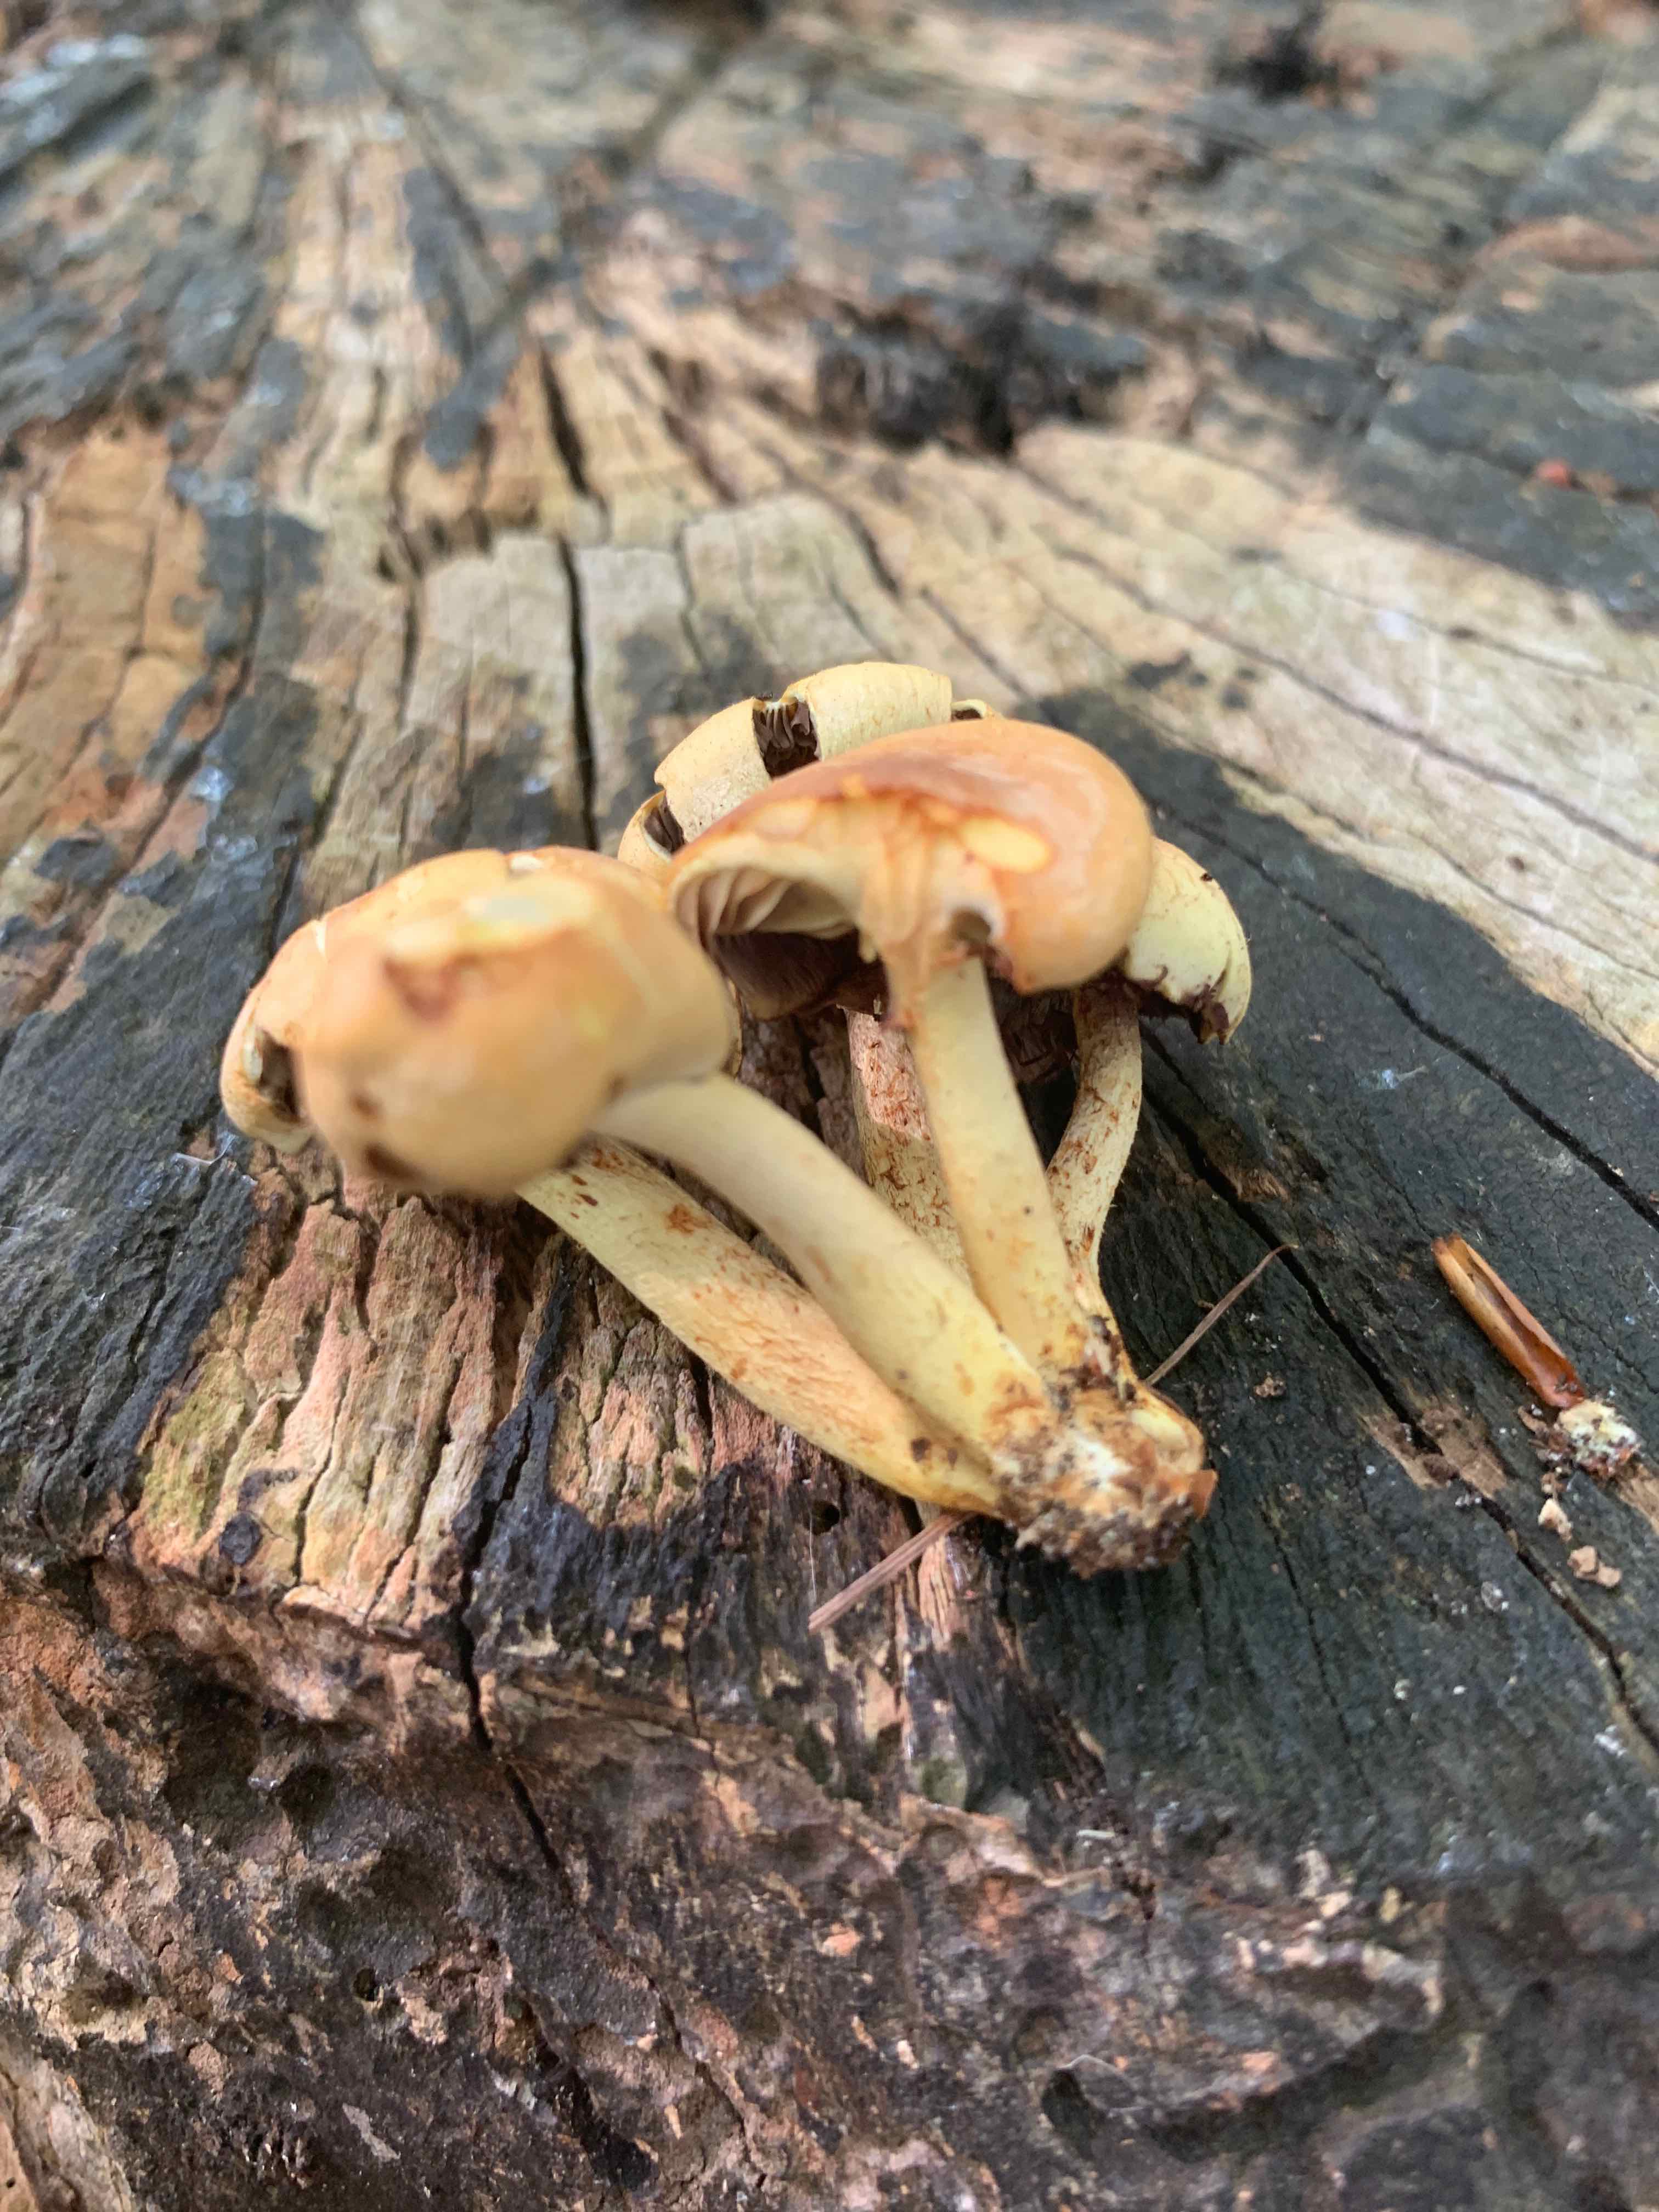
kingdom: Fungi
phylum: Basidiomycota
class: Agaricomycetes
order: Agaricales
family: Strophariaceae
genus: Hypholoma
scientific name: Hypholoma fasciculare
